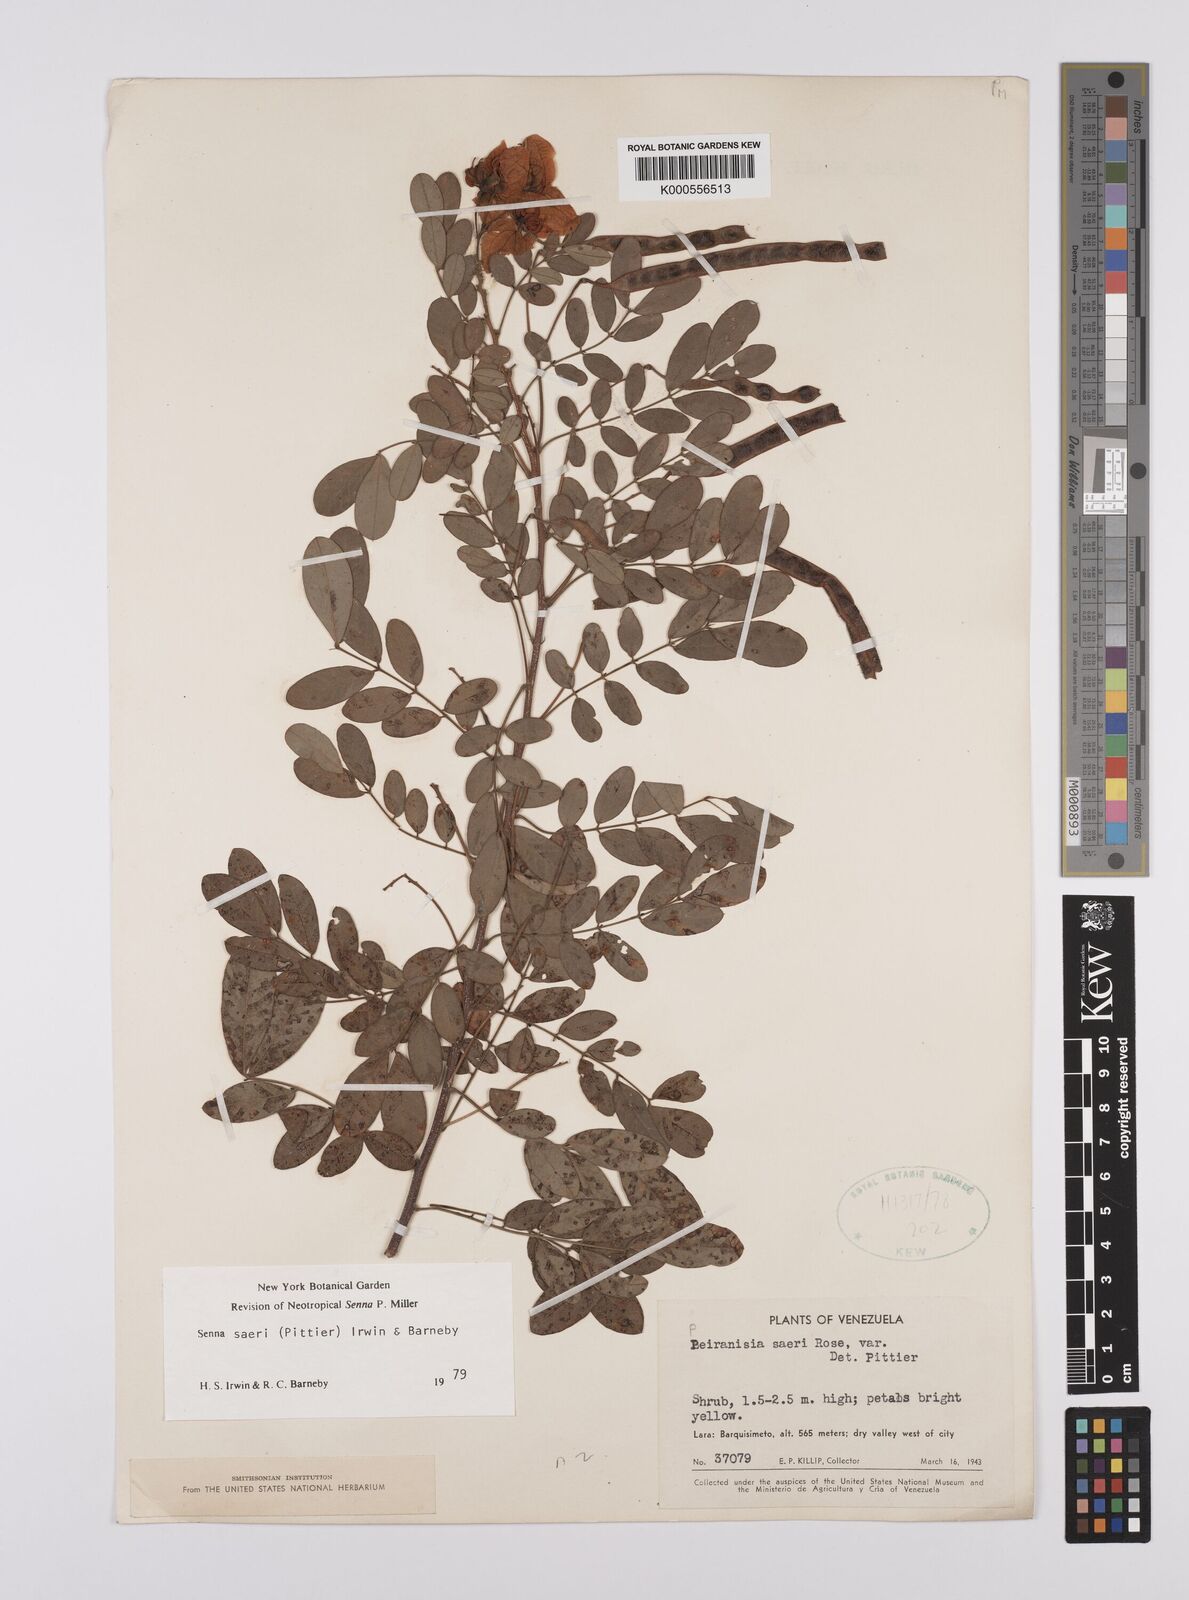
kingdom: Plantae
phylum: Tracheophyta
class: Magnoliopsida
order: Fabales
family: Fabaceae
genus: Senna
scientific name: Senna saeri
